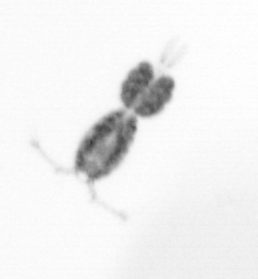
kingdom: Animalia
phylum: Arthropoda
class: Copepoda
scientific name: Copepoda
